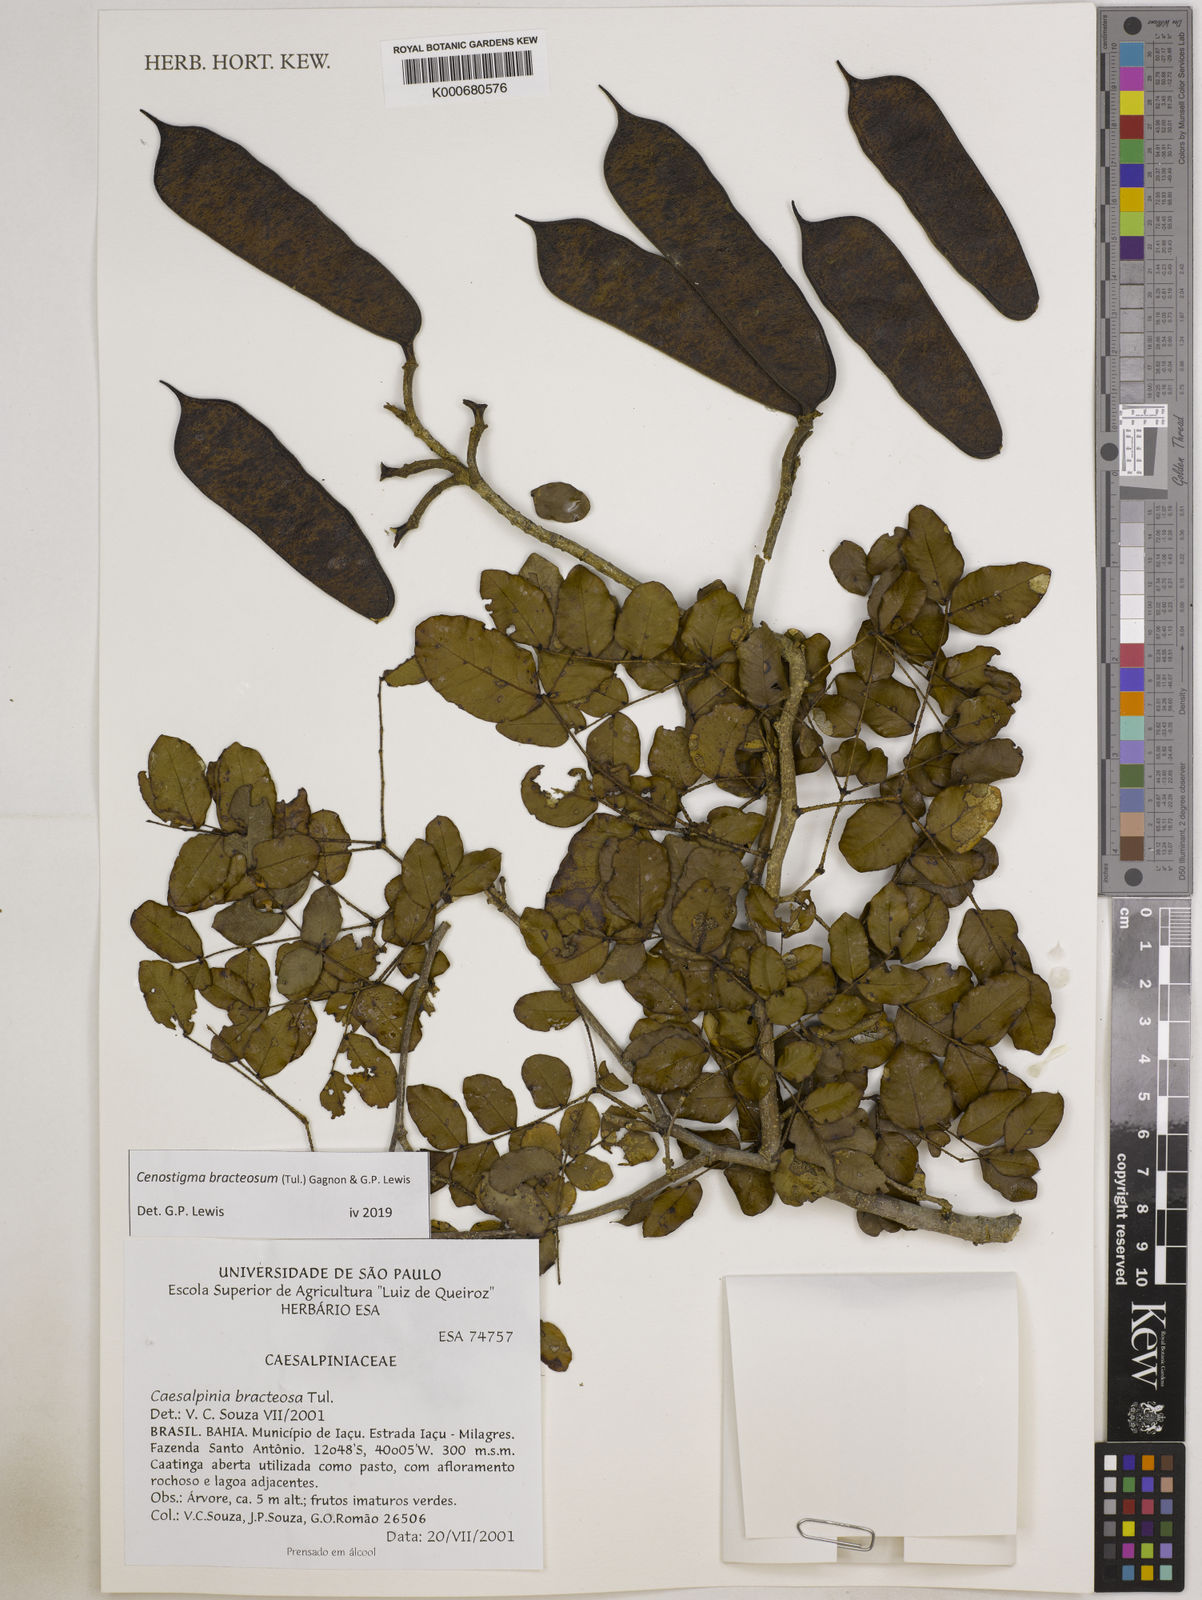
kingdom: Plantae
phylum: Tracheophyta
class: Magnoliopsida
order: Fabales
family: Fabaceae
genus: Cenostigma
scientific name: Cenostigma bracteosum
